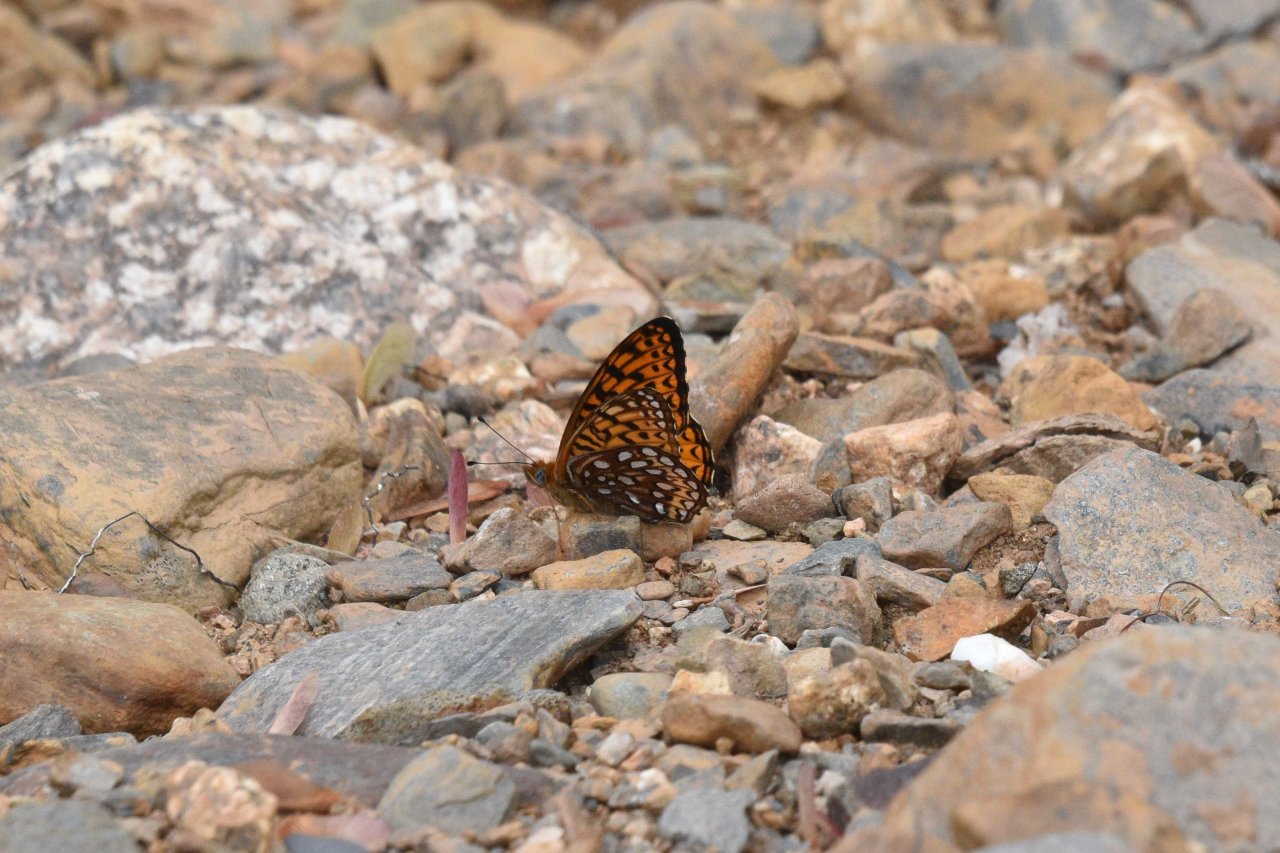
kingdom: Animalia
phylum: Arthropoda
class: Insecta
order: Lepidoptera
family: Nymphalidae
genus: Speyeria
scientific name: Speyeria atlantis
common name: Atlantis Fritillary
